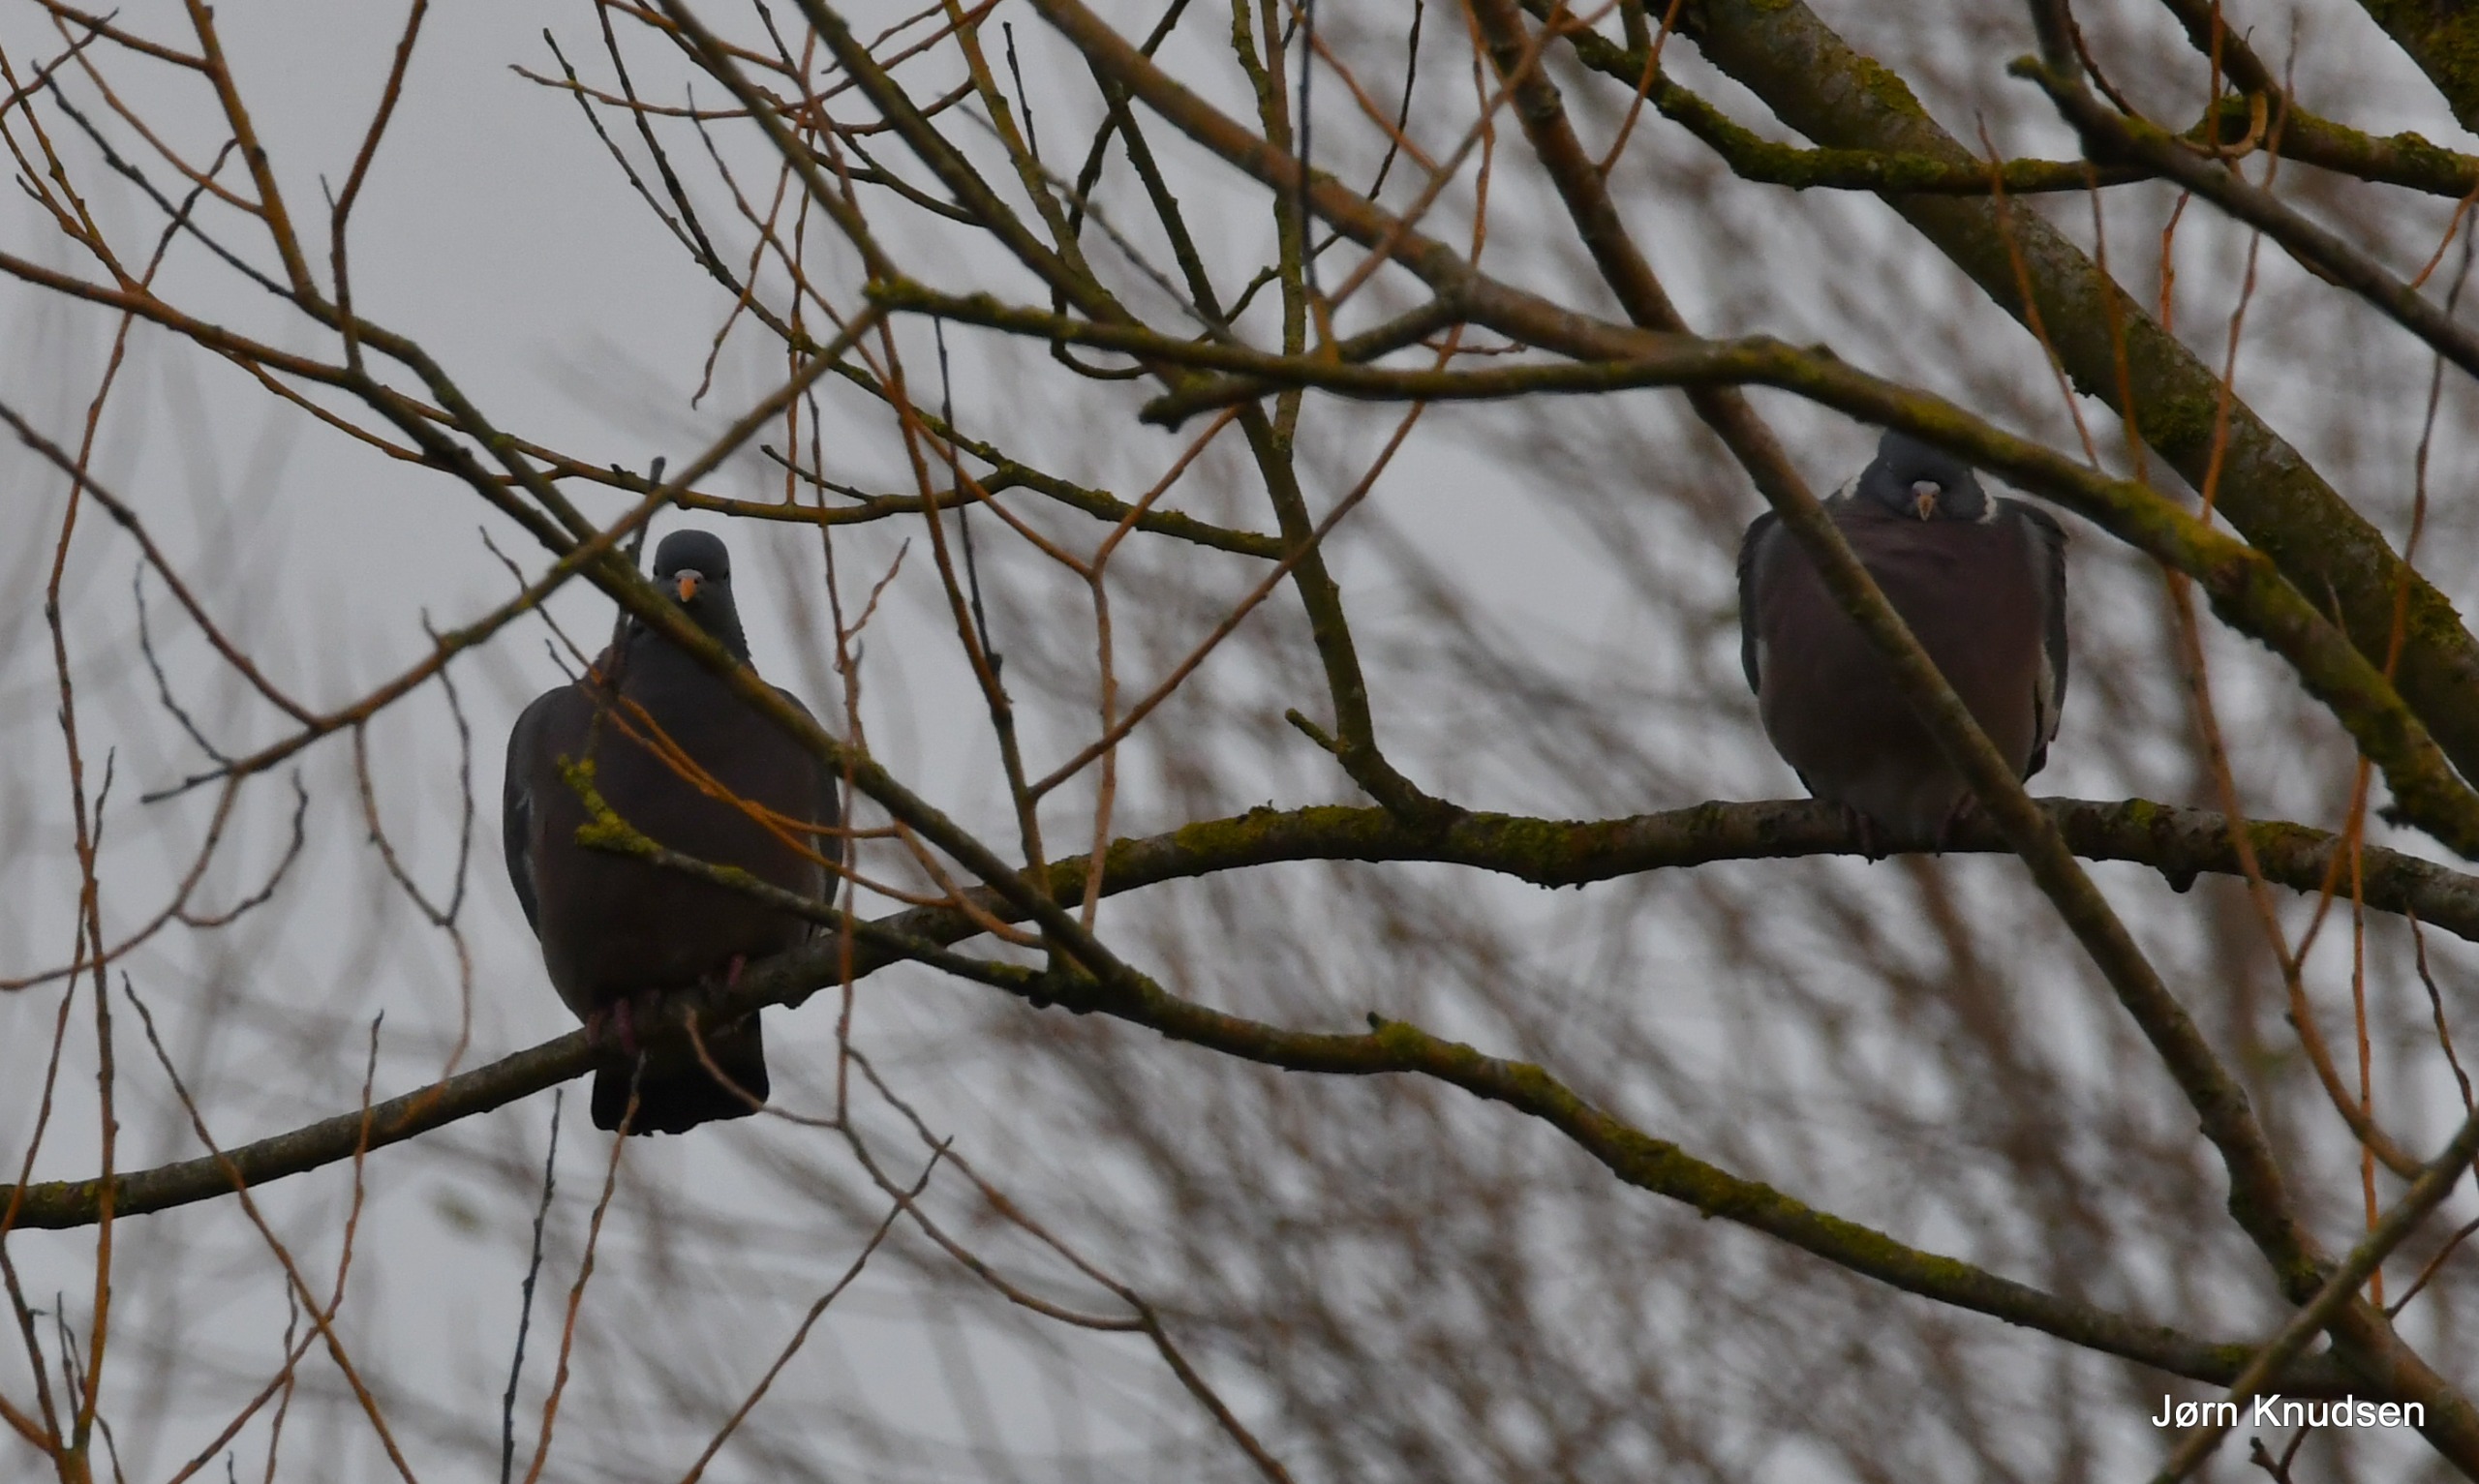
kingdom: Animalia
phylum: Chordata
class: Aves
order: Columbiformes
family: Columbidae
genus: Columba
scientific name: Columba palumbus
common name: Ringdue
